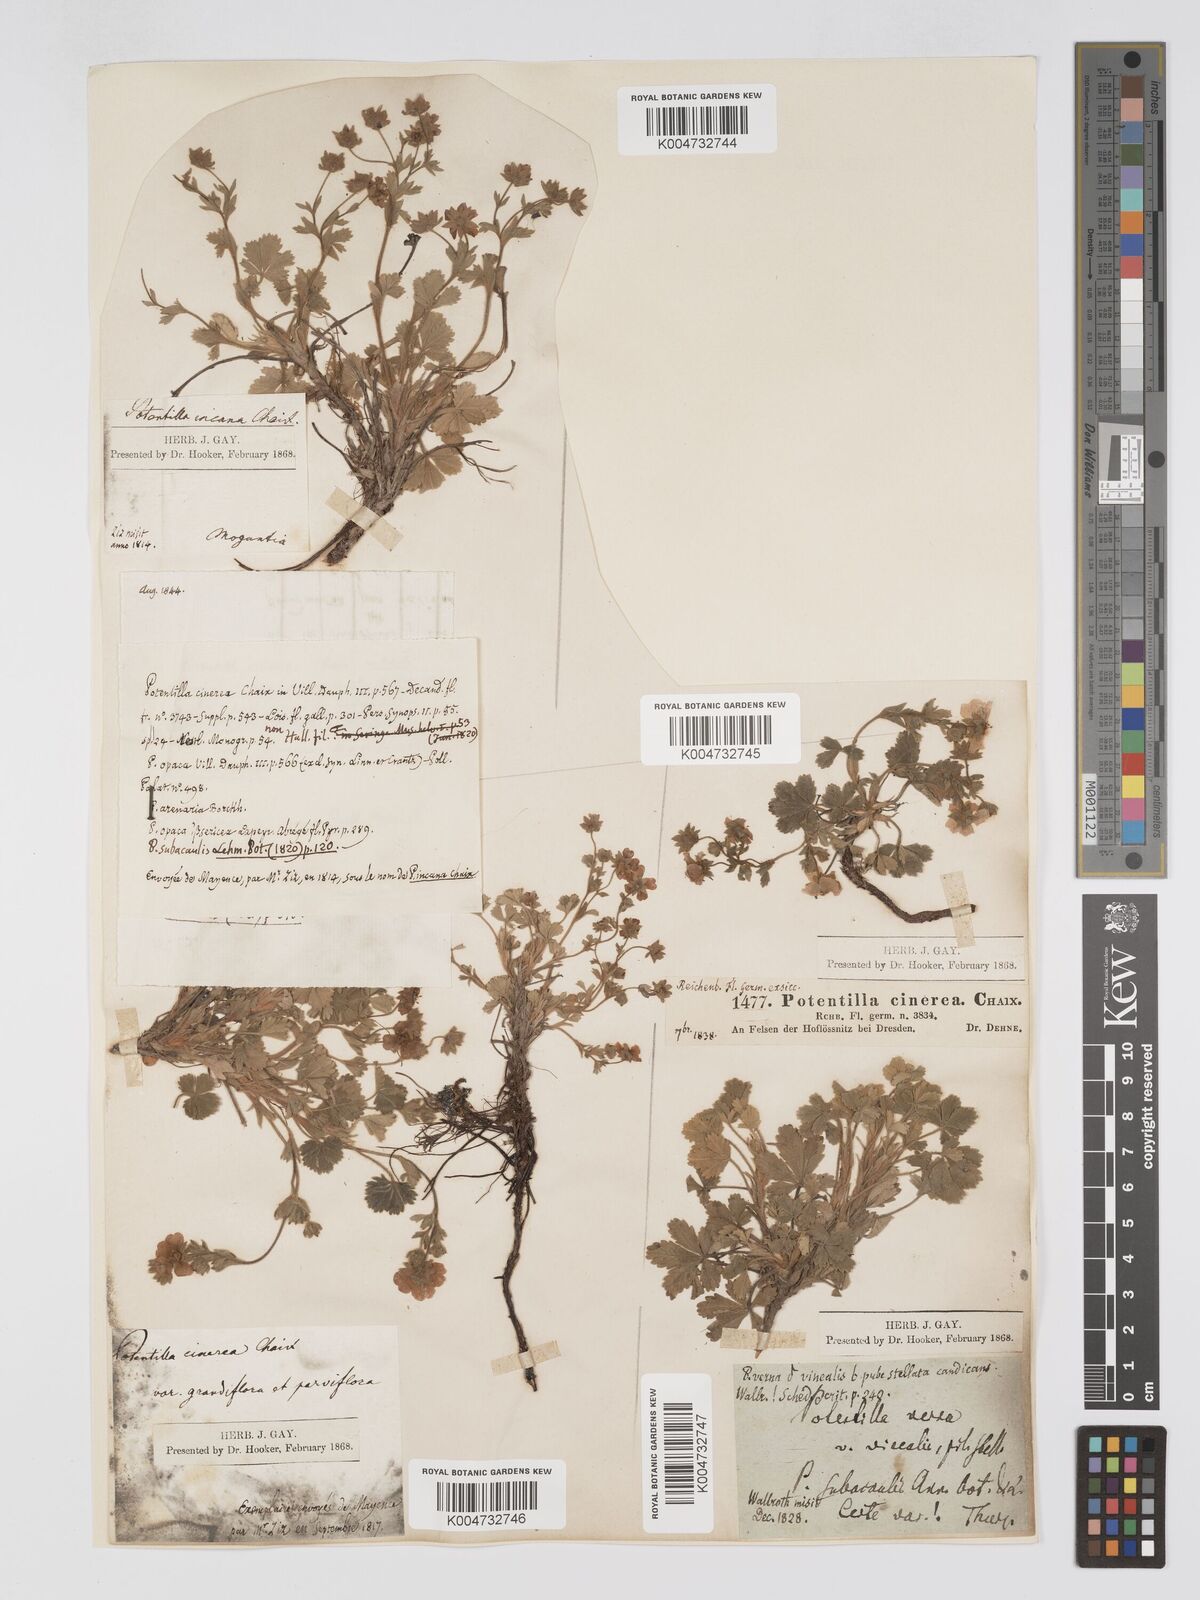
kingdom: Plantae
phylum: Tracheophyta
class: Magnoliopsida
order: Rosales
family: Rosaceae
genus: Potentilla
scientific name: Potentilla
